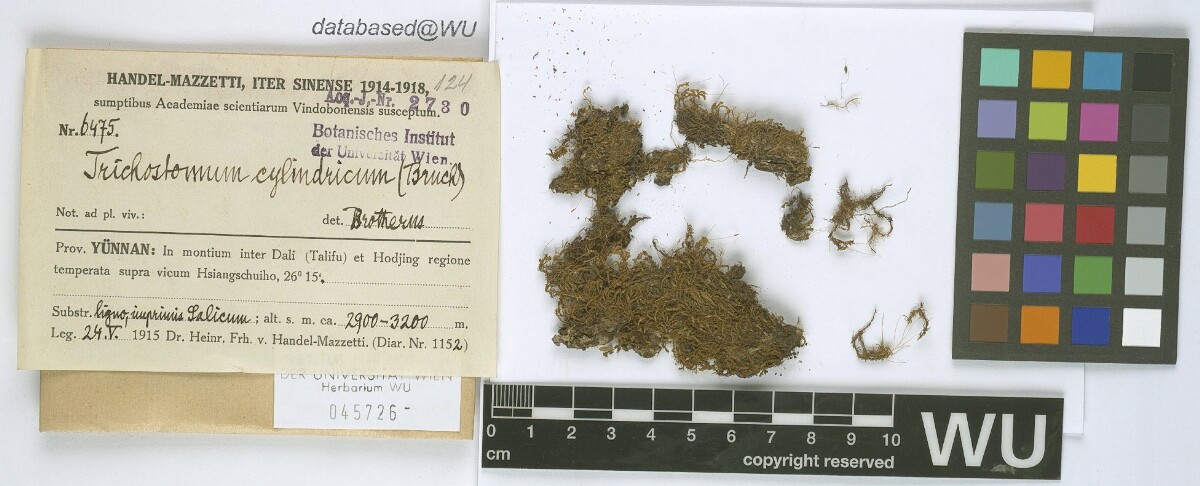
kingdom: Plantae
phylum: Bryophyta
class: Bryopsida
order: Pottiales
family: Pottiaceae
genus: Chionoloma
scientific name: Chionoloma tenuirostre
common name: Narrow-fruited crisp-moss
